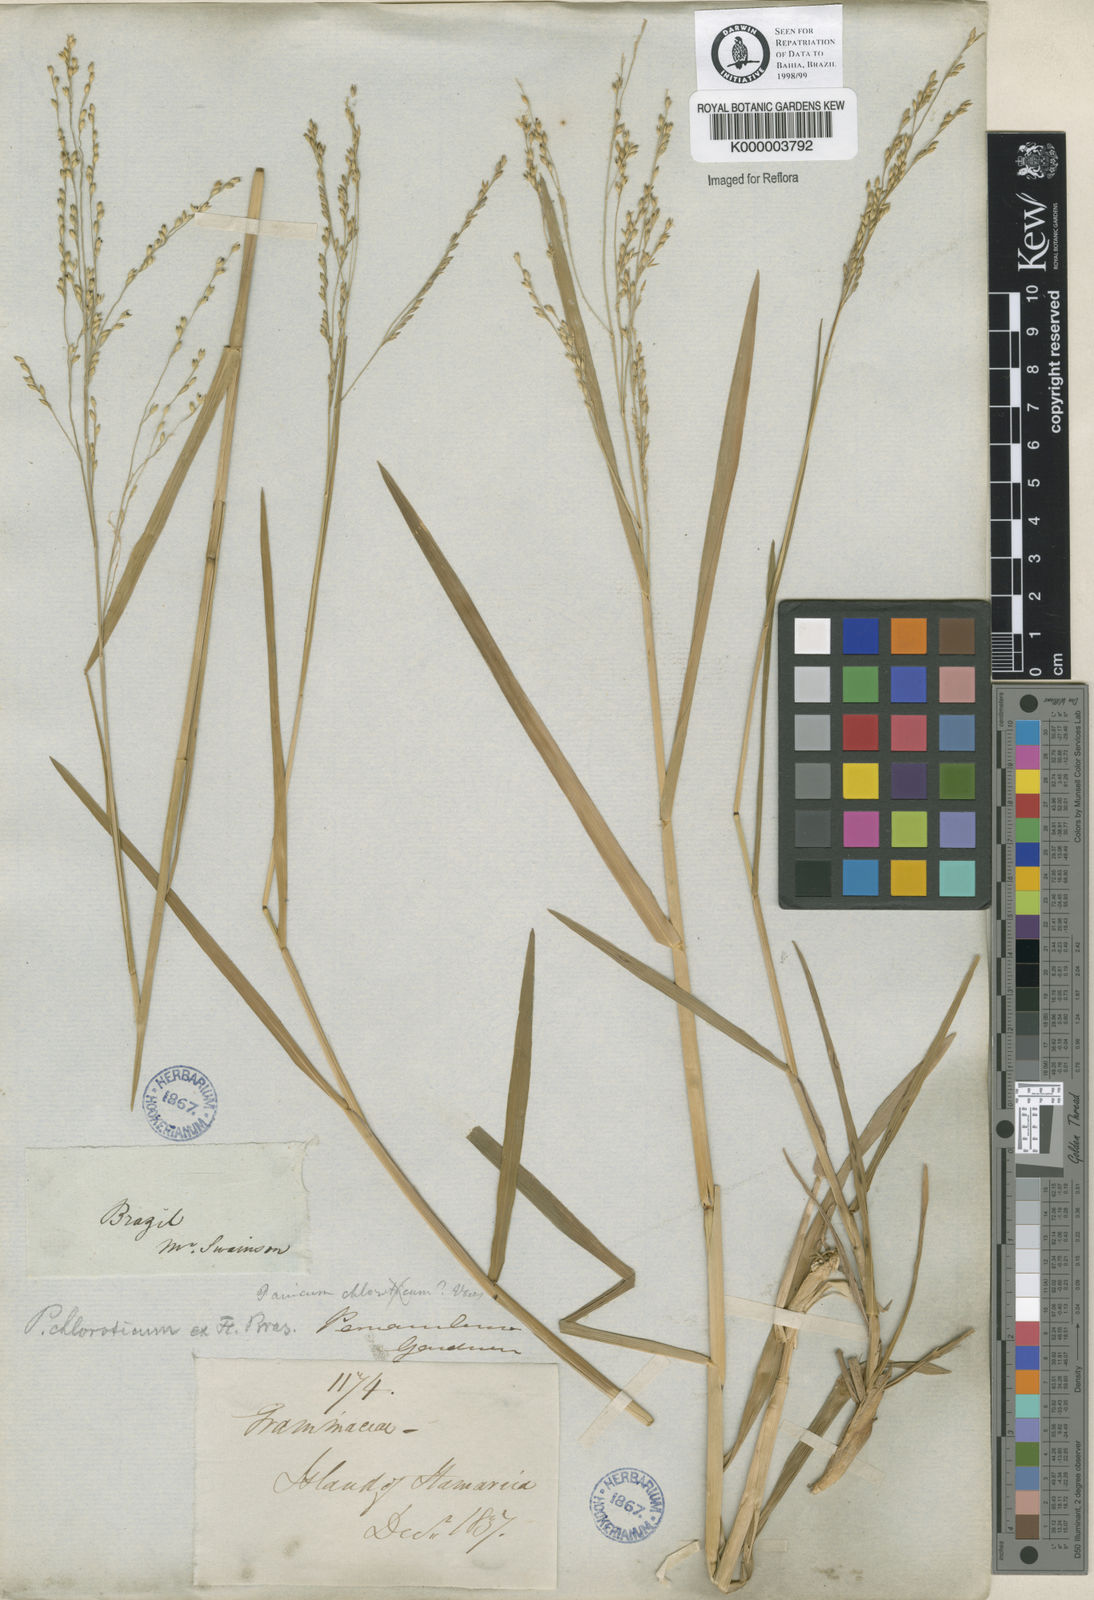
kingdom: Plantae
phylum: Tracheophyta
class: Liliopsida
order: Poales
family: Poaceae
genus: Panicum
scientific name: Panicum dichotomiflorum
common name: Autumn millet
